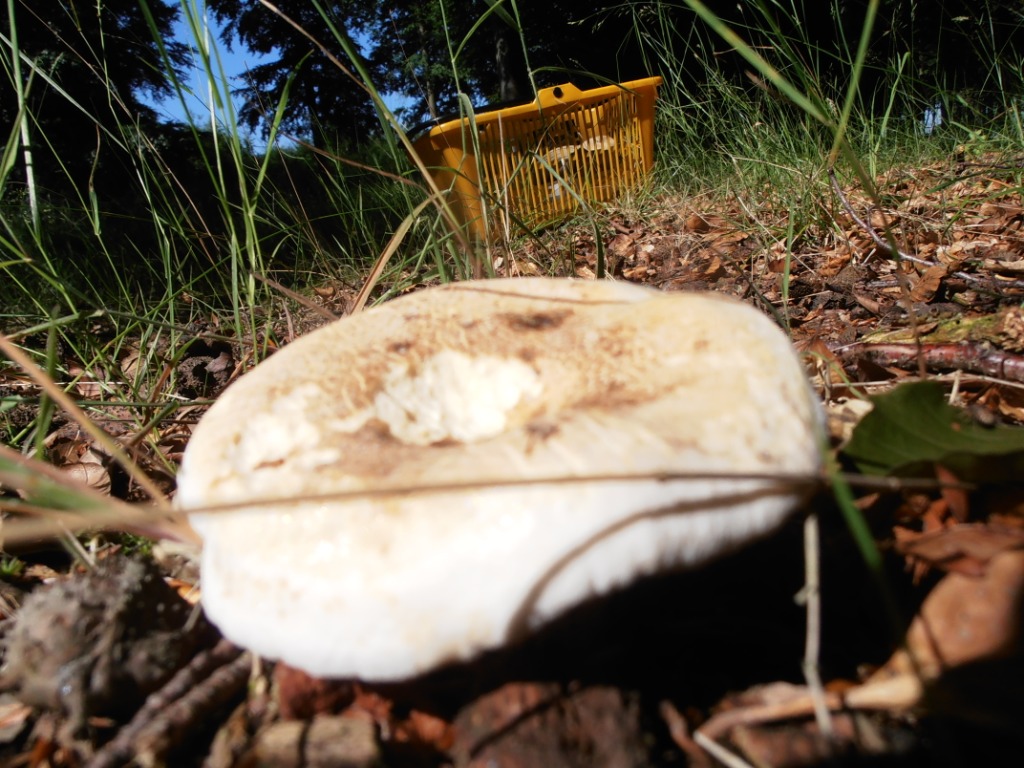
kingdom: Fungi
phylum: Basidiomycota
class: Agaricomycetes
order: Russulales
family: Russulaceae
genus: Lactifluus
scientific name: Lactifluus piperatus
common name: peber-mælkehat
